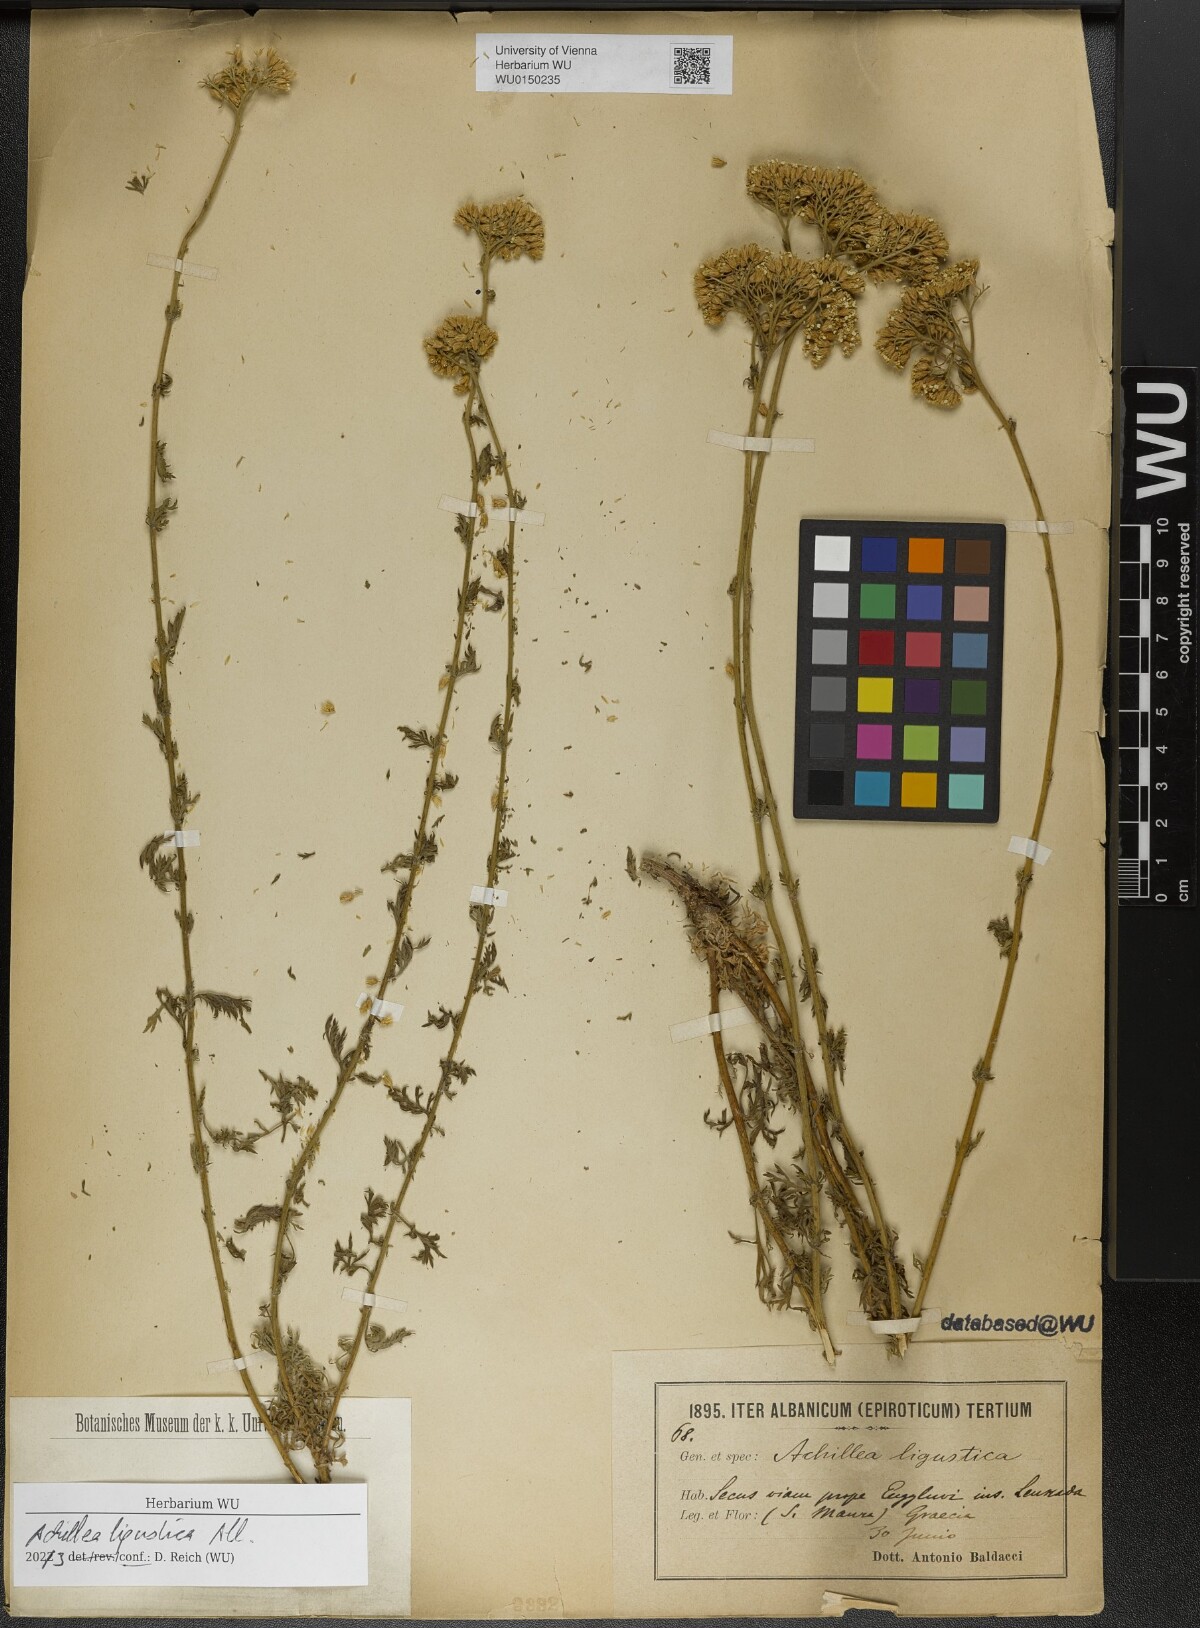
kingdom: Plantae
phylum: Tracheophyta
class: Magnoliopsida
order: Asterales
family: Asteraceae
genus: Achillea
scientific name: Achillea ligustica
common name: Southern yarrow
